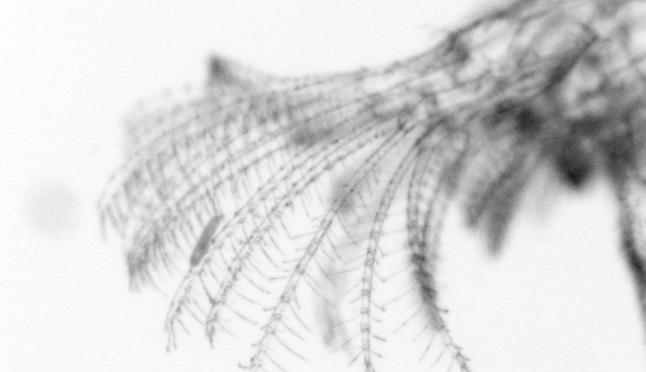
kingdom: Animalia
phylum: Arthropoda
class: Maxillopoda
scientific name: Maxillopoda
